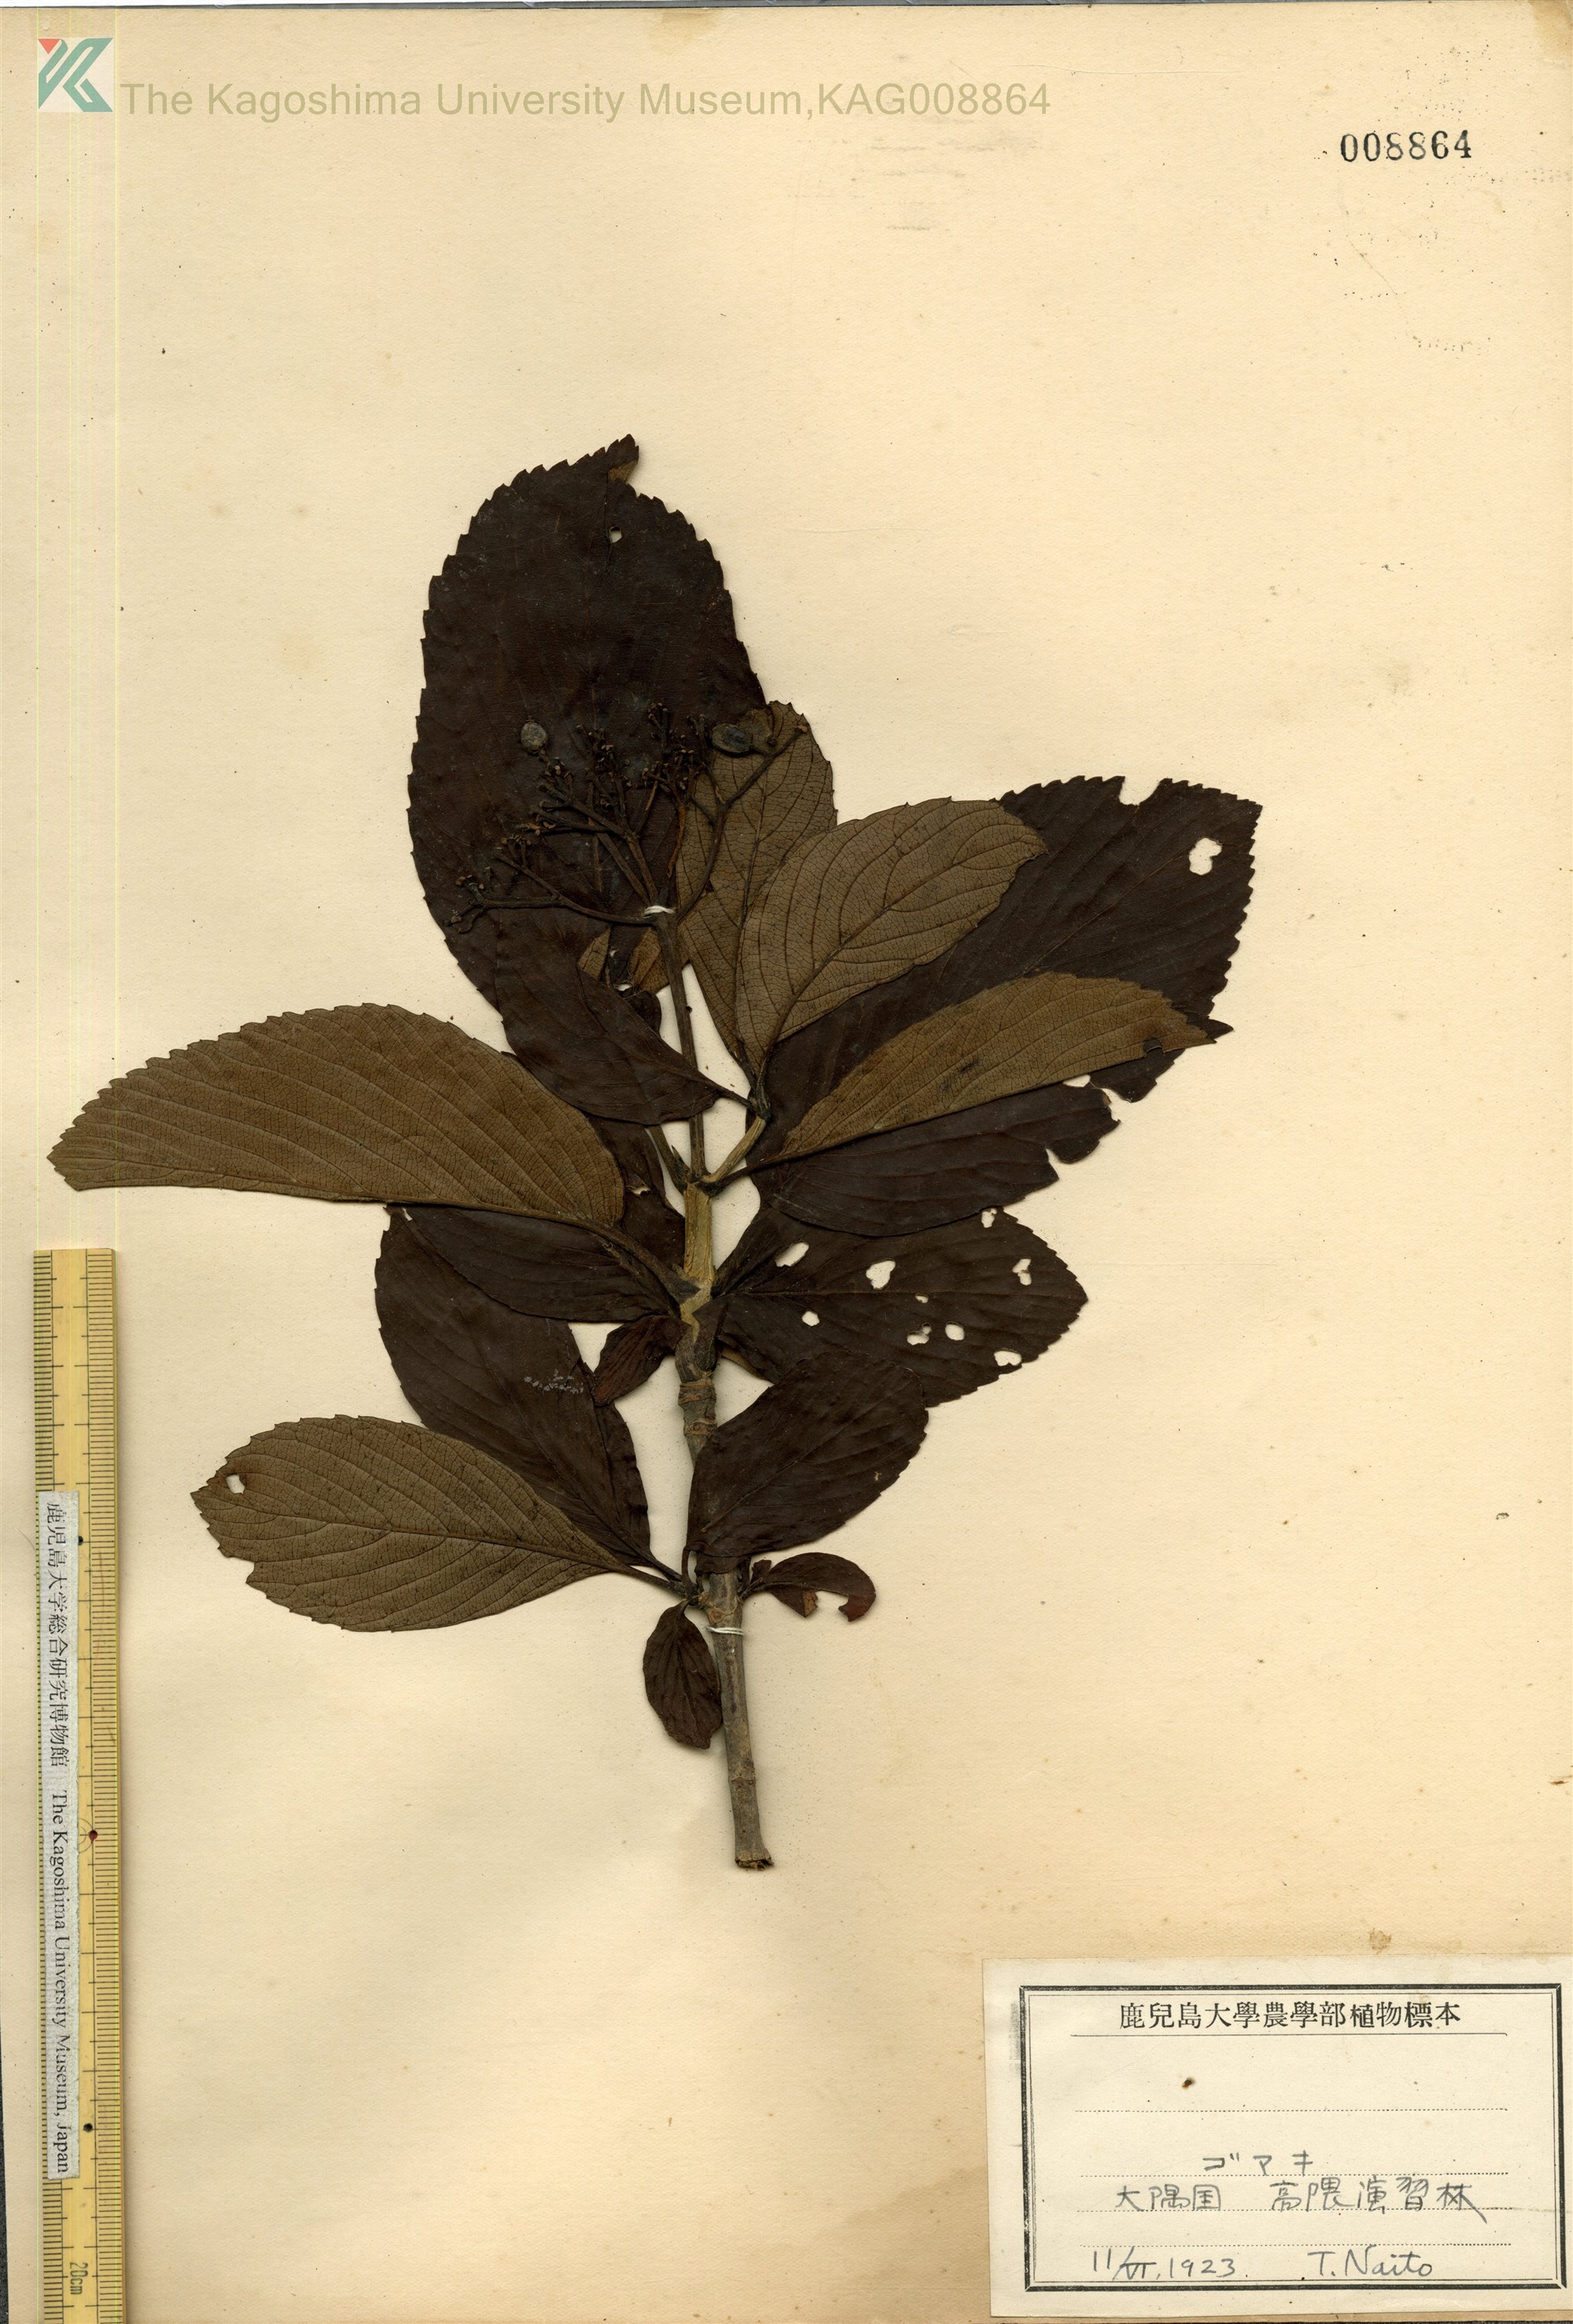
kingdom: Plantae
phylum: Tracheophyta
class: Magnoliopsida
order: Dipsacales
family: Viburnaceae
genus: Viburnum
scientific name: Viburnum sieboldii
